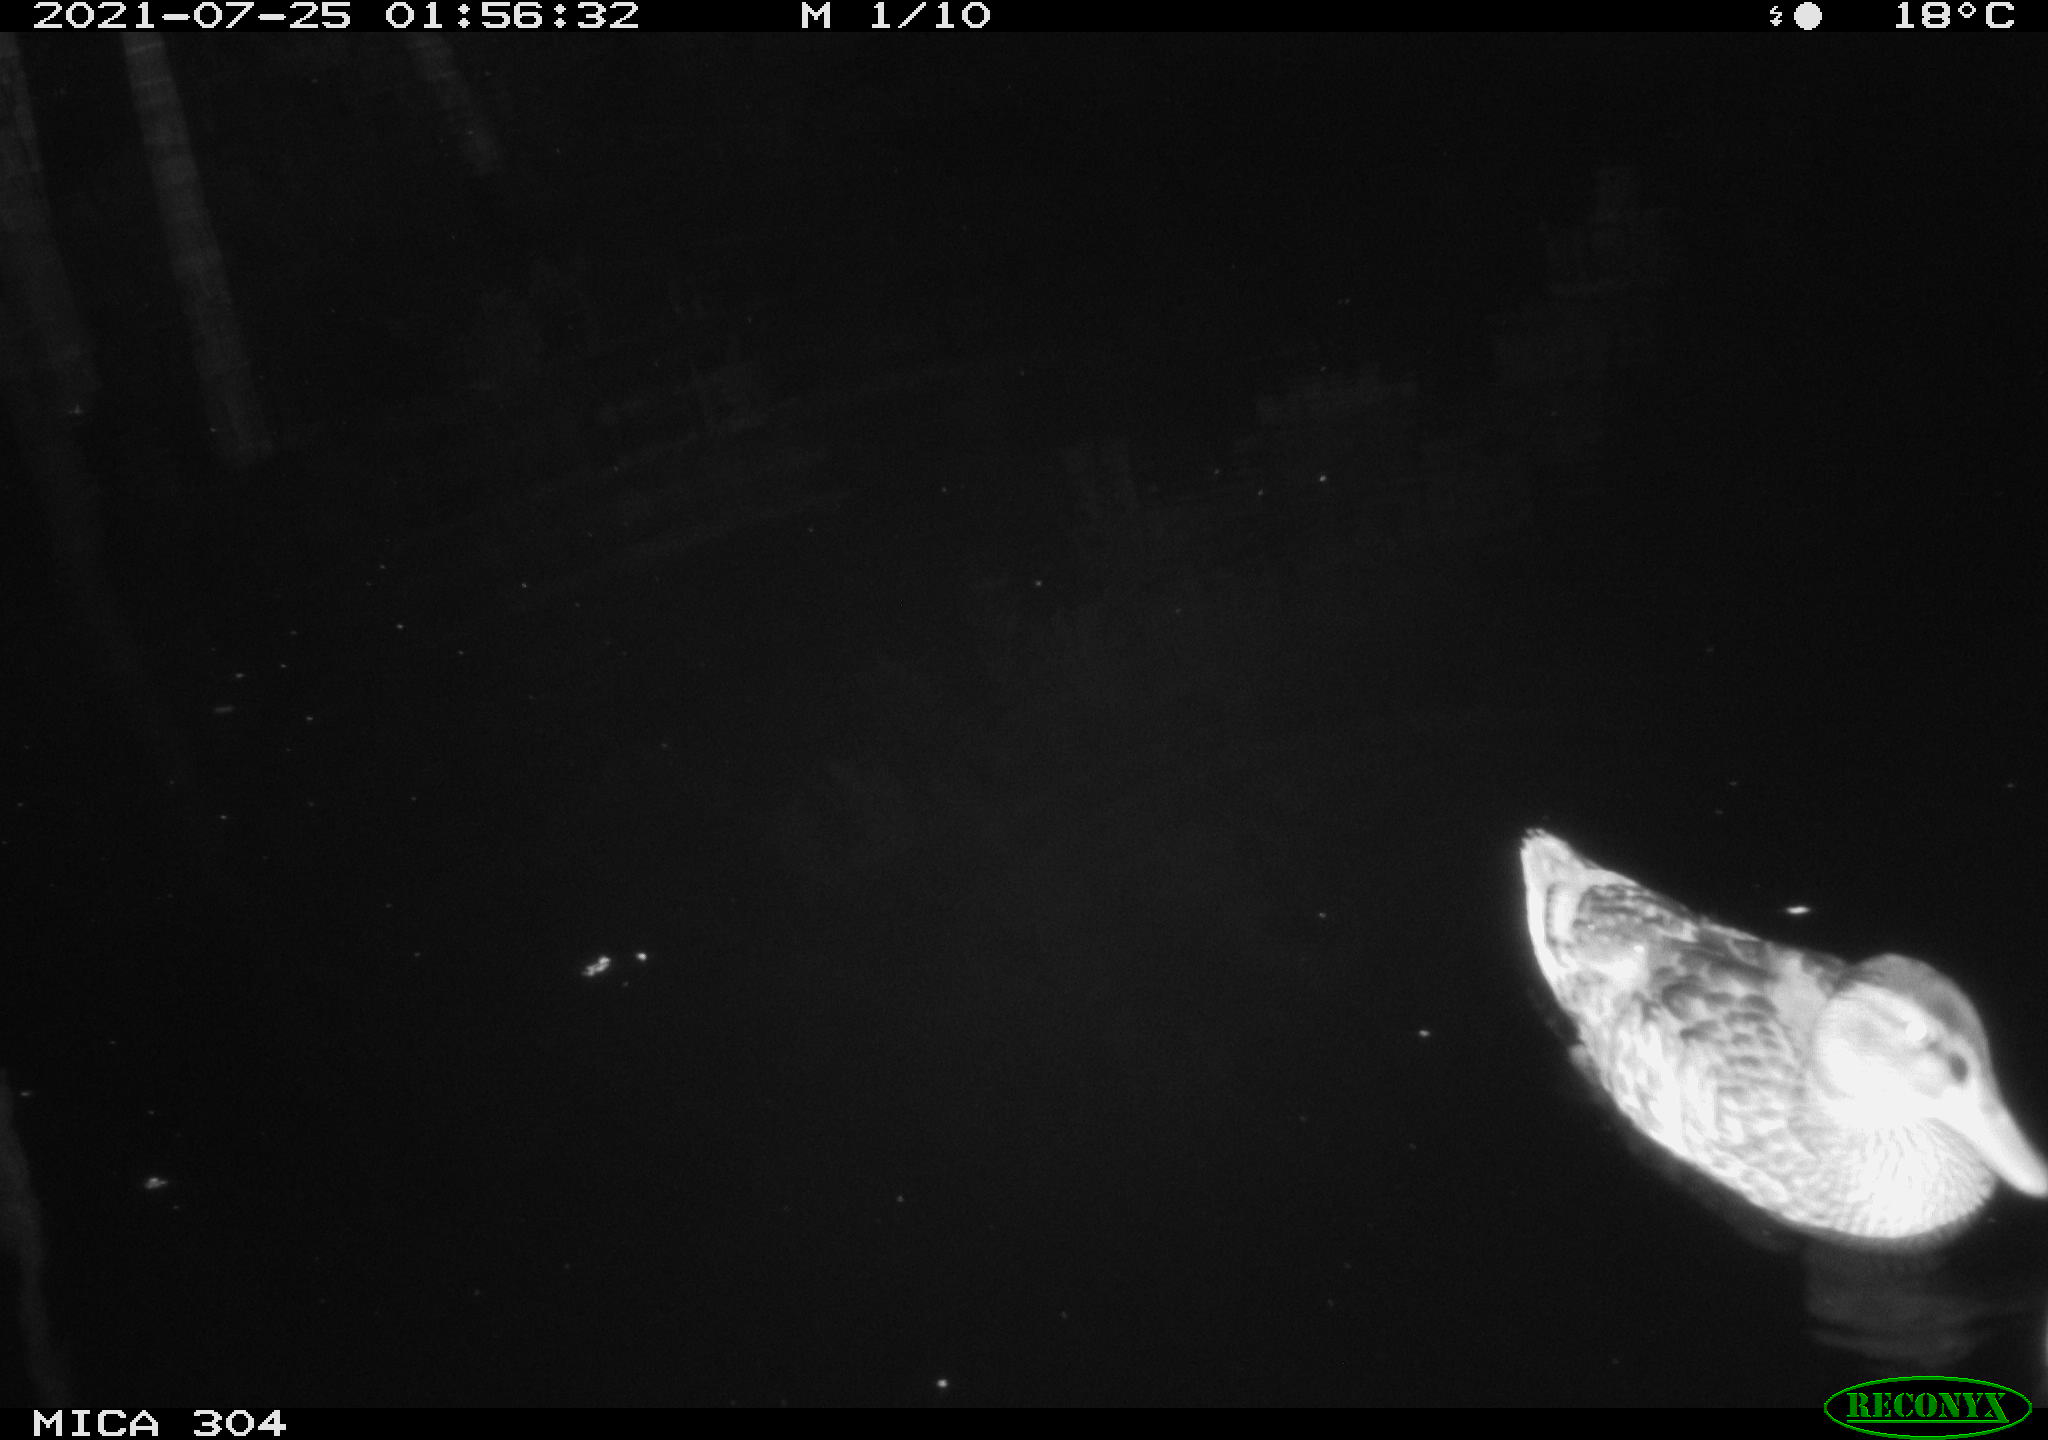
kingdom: Animalia
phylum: Chordata
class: Aves
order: Anseriformes
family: Anatidae
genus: Anas
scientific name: Anas platyrhynchos
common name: Mallard
